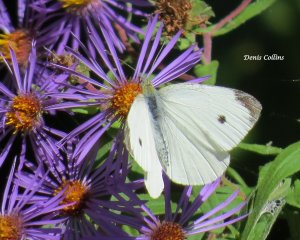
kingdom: Animalia
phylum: Arthropoda
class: Insecta
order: Lepidoptera
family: Pieridae
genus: Pieris
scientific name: Pieris rapae
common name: Cabbage White
